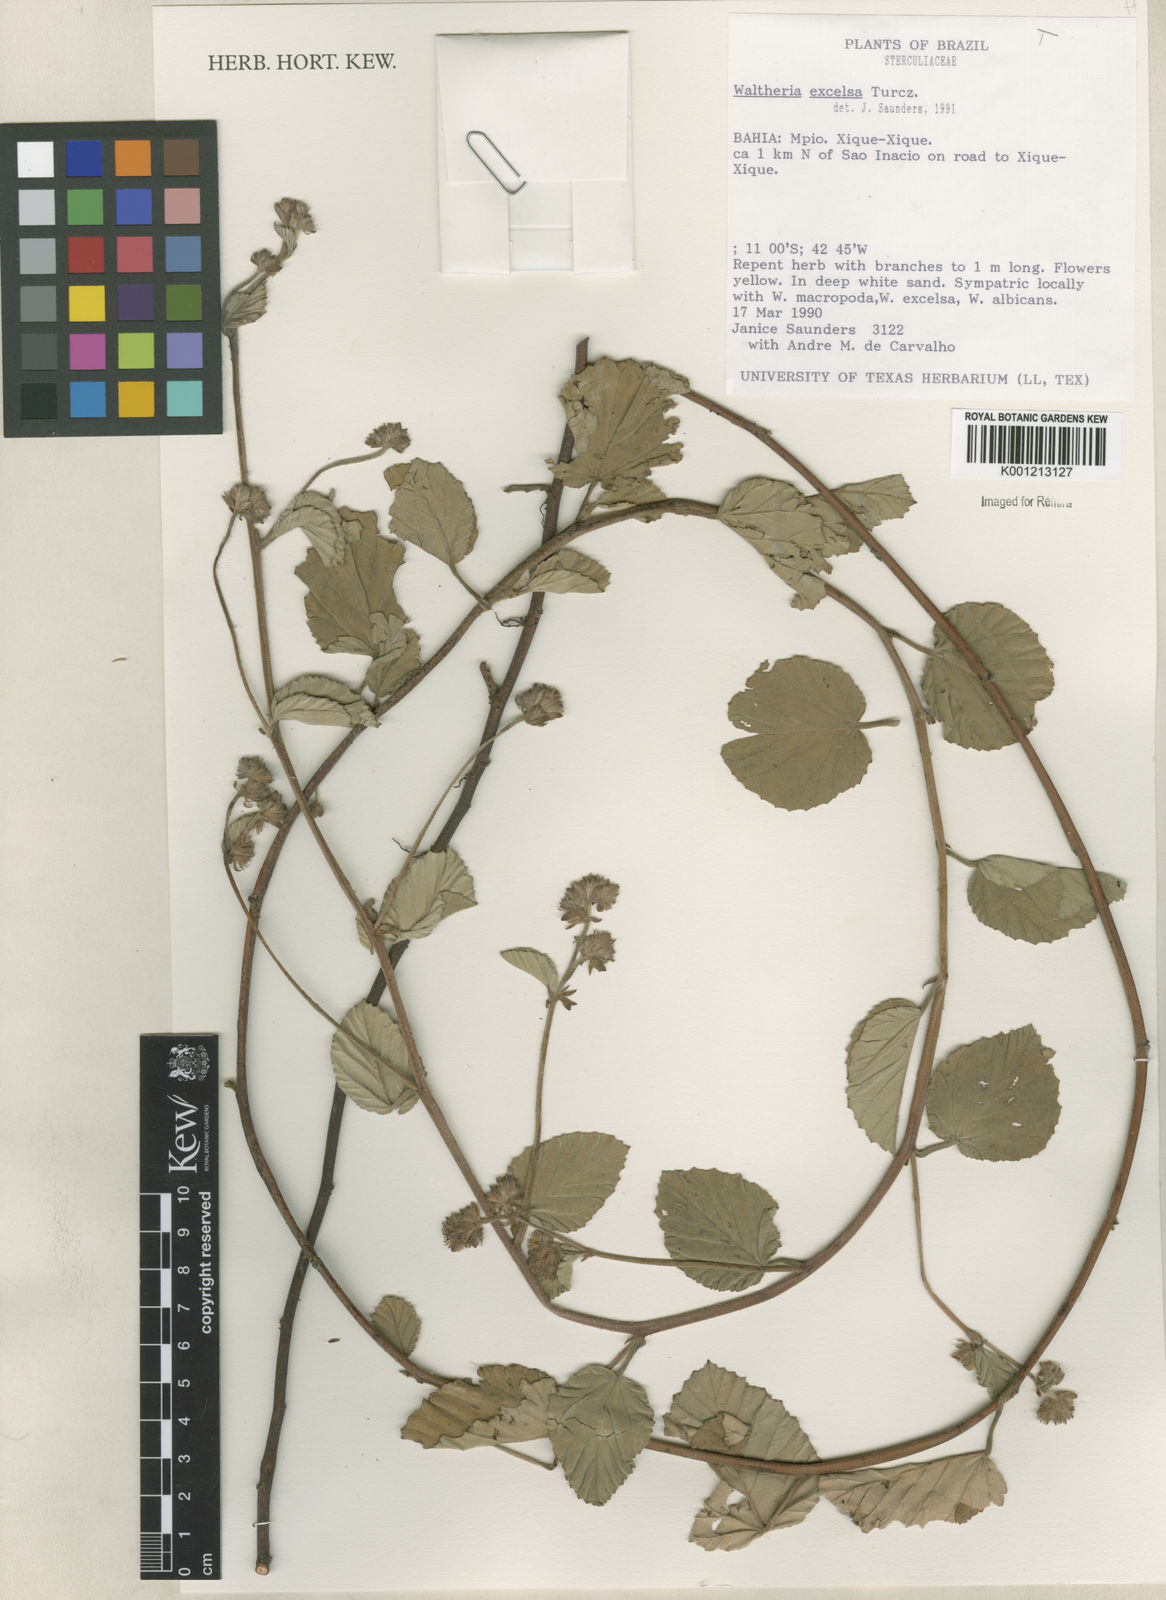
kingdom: Plantae
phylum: Tracheophyta
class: Magnoliopsida
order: Malvales
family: Malvaceae
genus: Waltheria
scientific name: Waltheria excelsa
